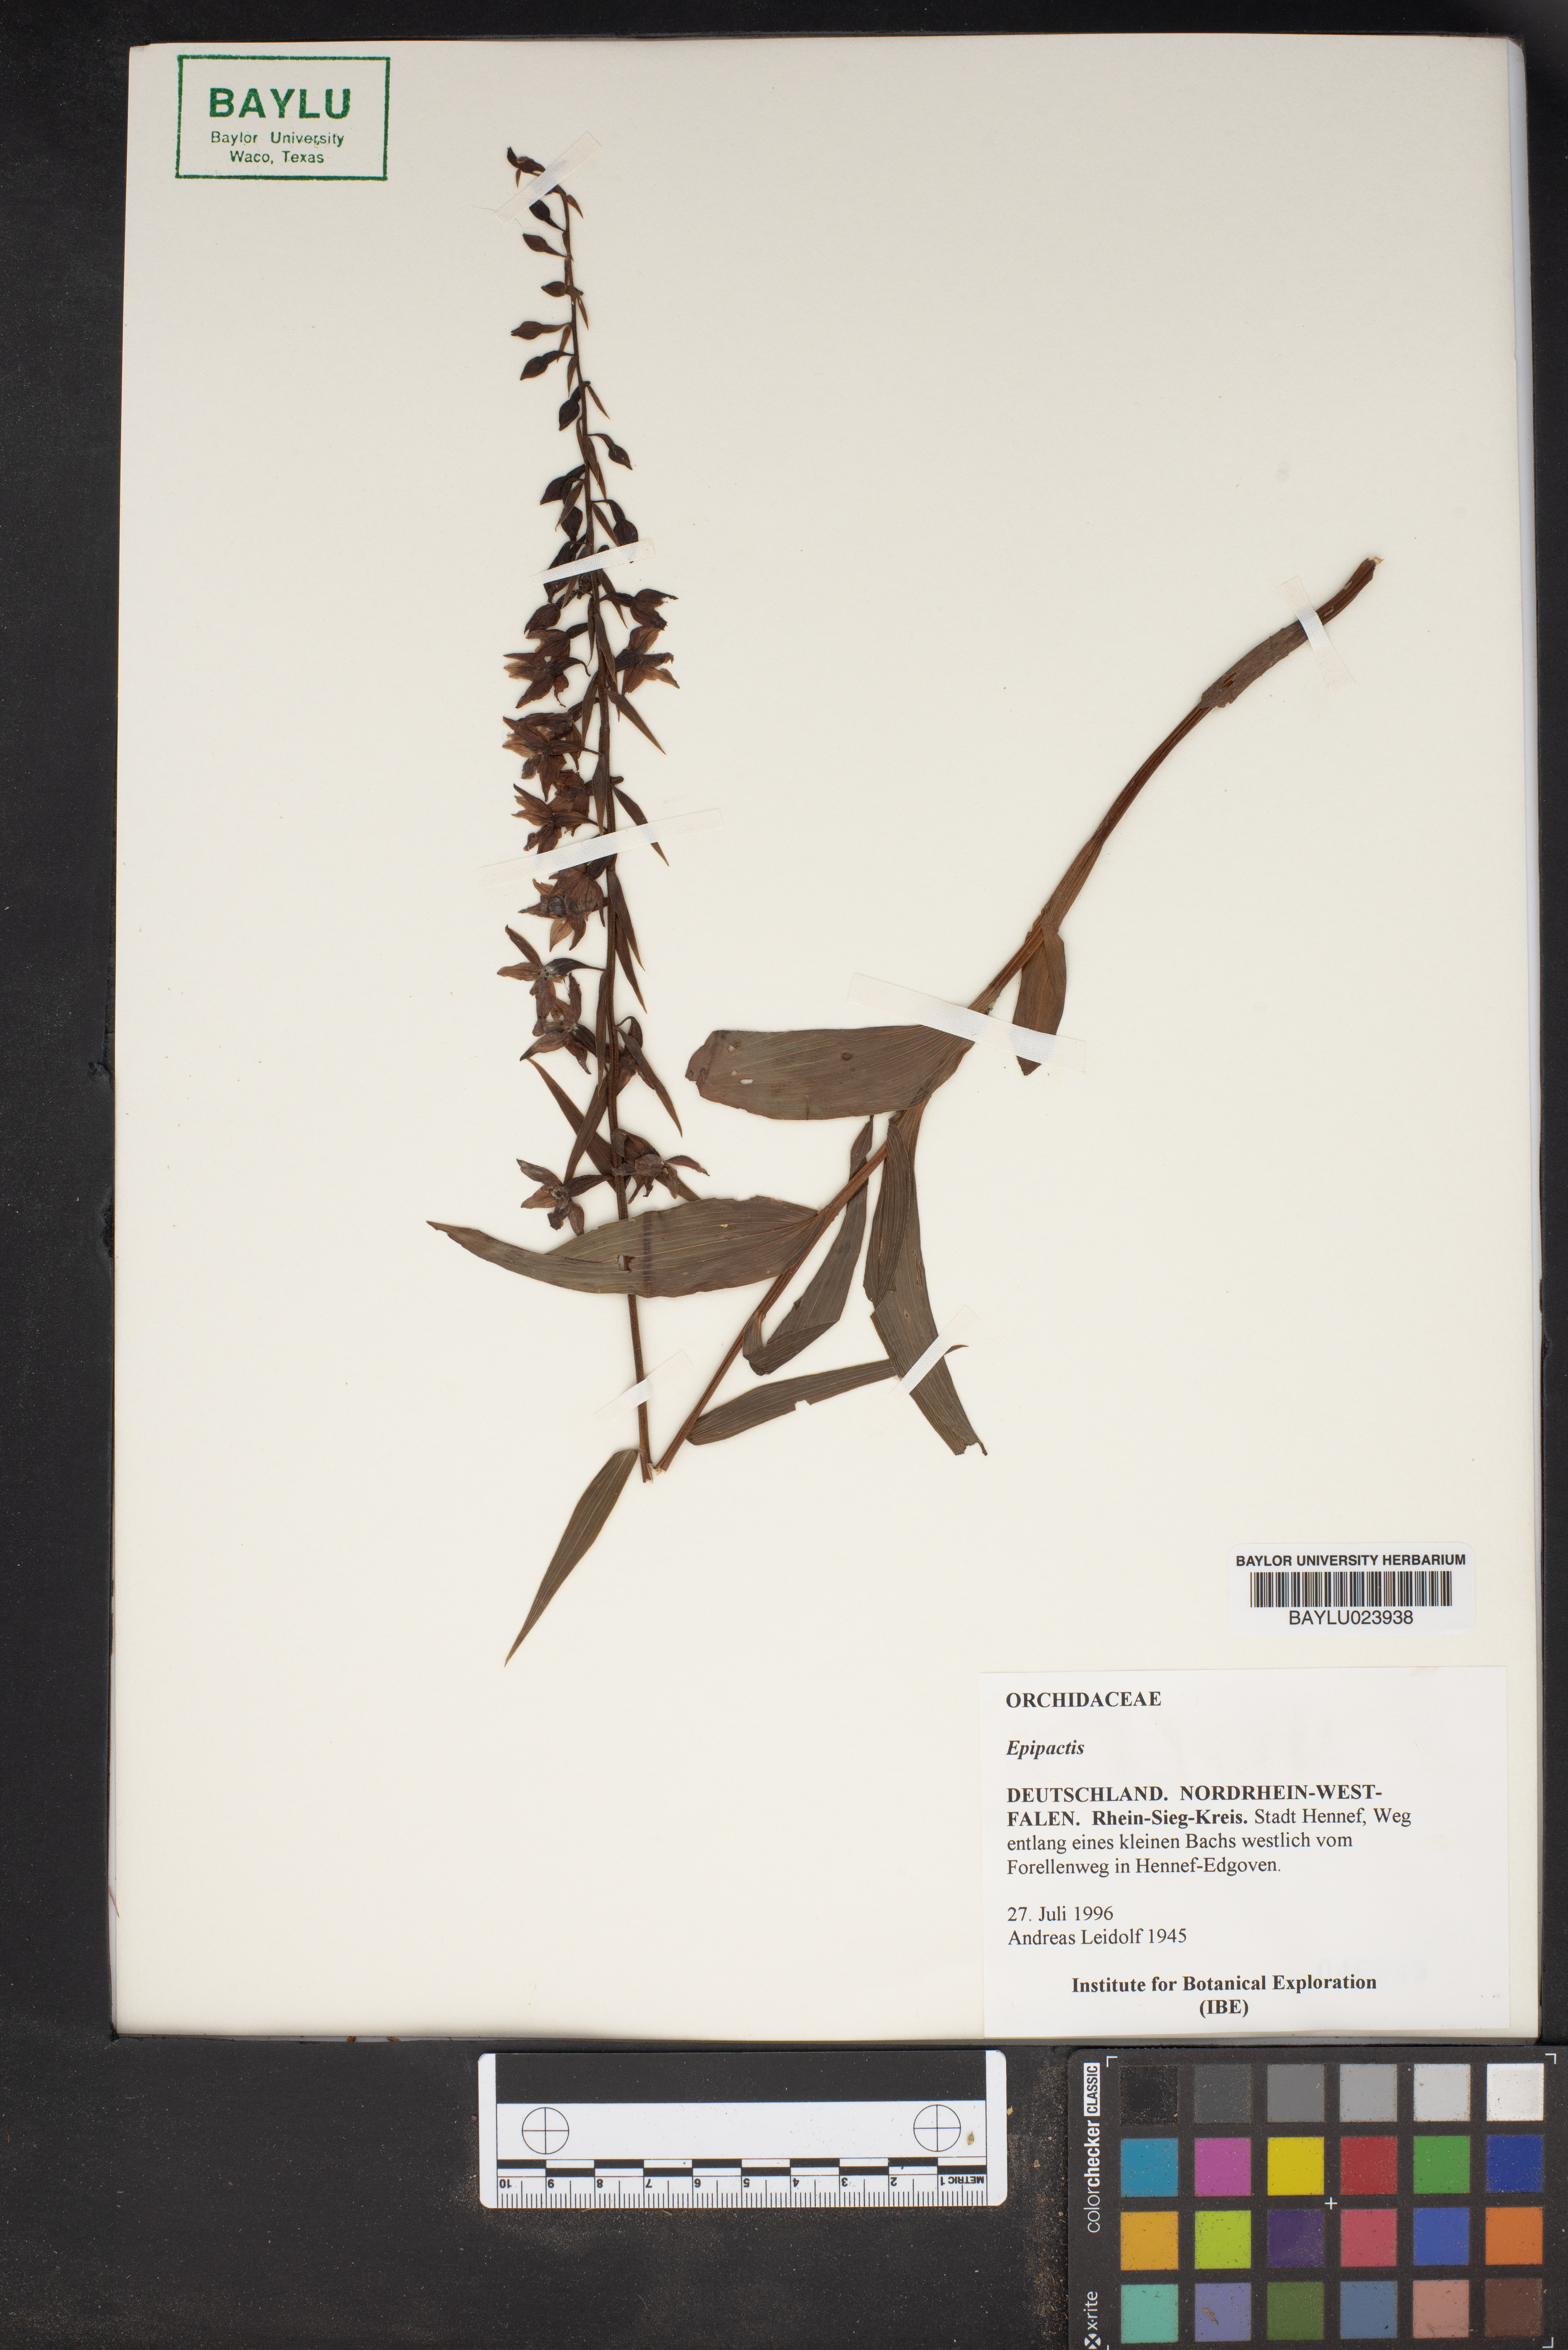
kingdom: Plantae
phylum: Tracheophyta
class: Liliopsida
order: Asparagales
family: Orchidaceae
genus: Epipactis
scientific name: Epipactis
